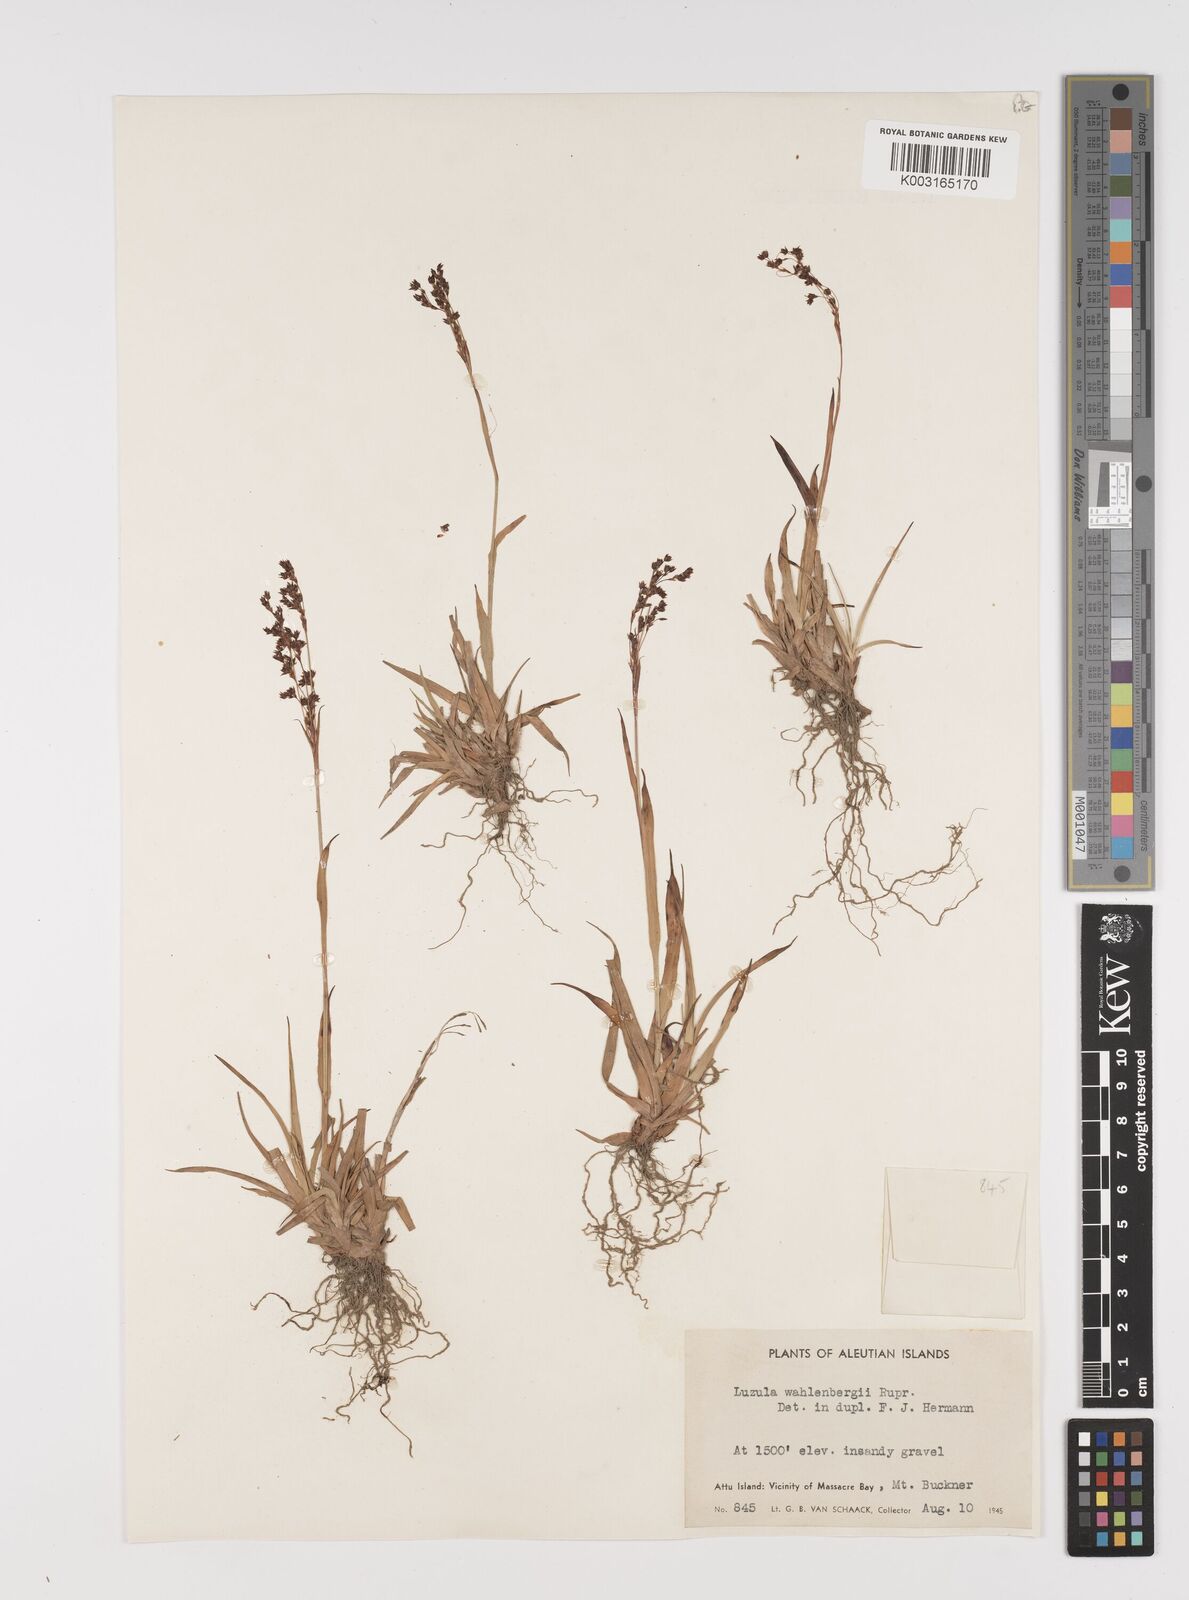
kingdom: Plantae
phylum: Tracheophyta
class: Liliopsida
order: Poales
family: Juncaceae
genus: Luzula
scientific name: Luzula wahlenbergii
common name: Wahlenberg's wood-rush
